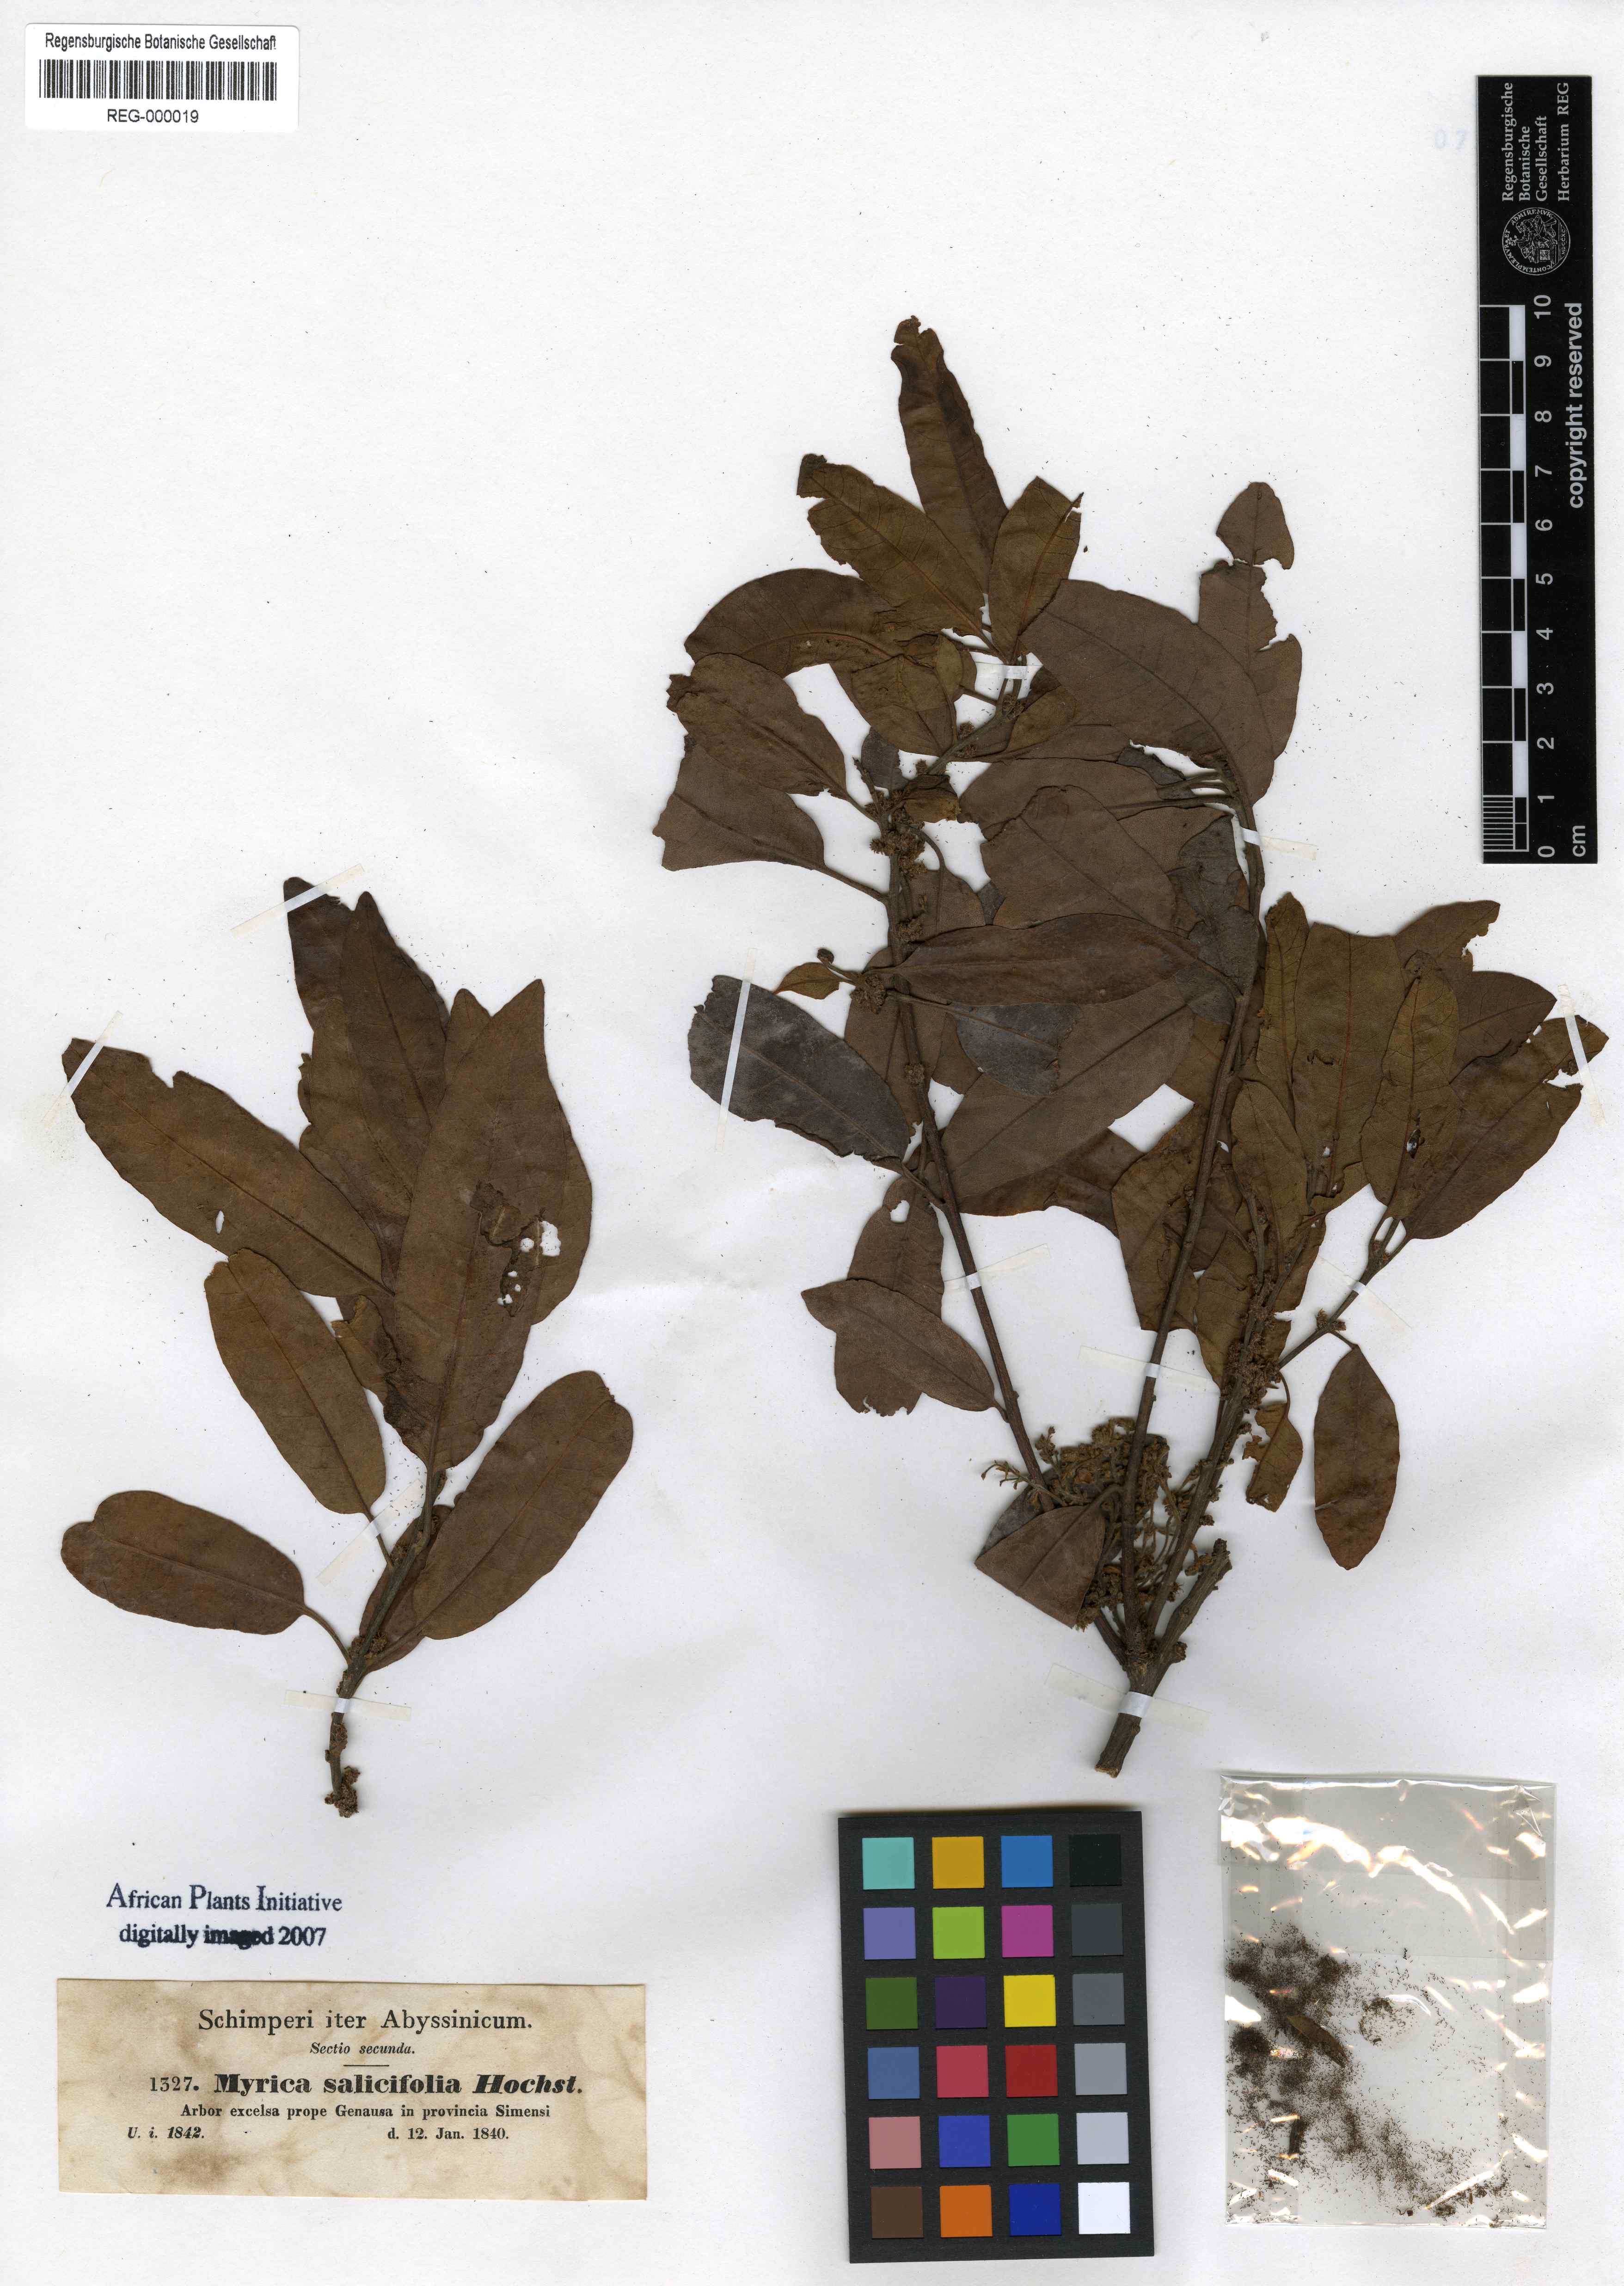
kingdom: Plantae
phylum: Tracheophyta
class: Magnoliopsida
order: Fagales
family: Myricaceae
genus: Morella
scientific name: Morella salicifolia
